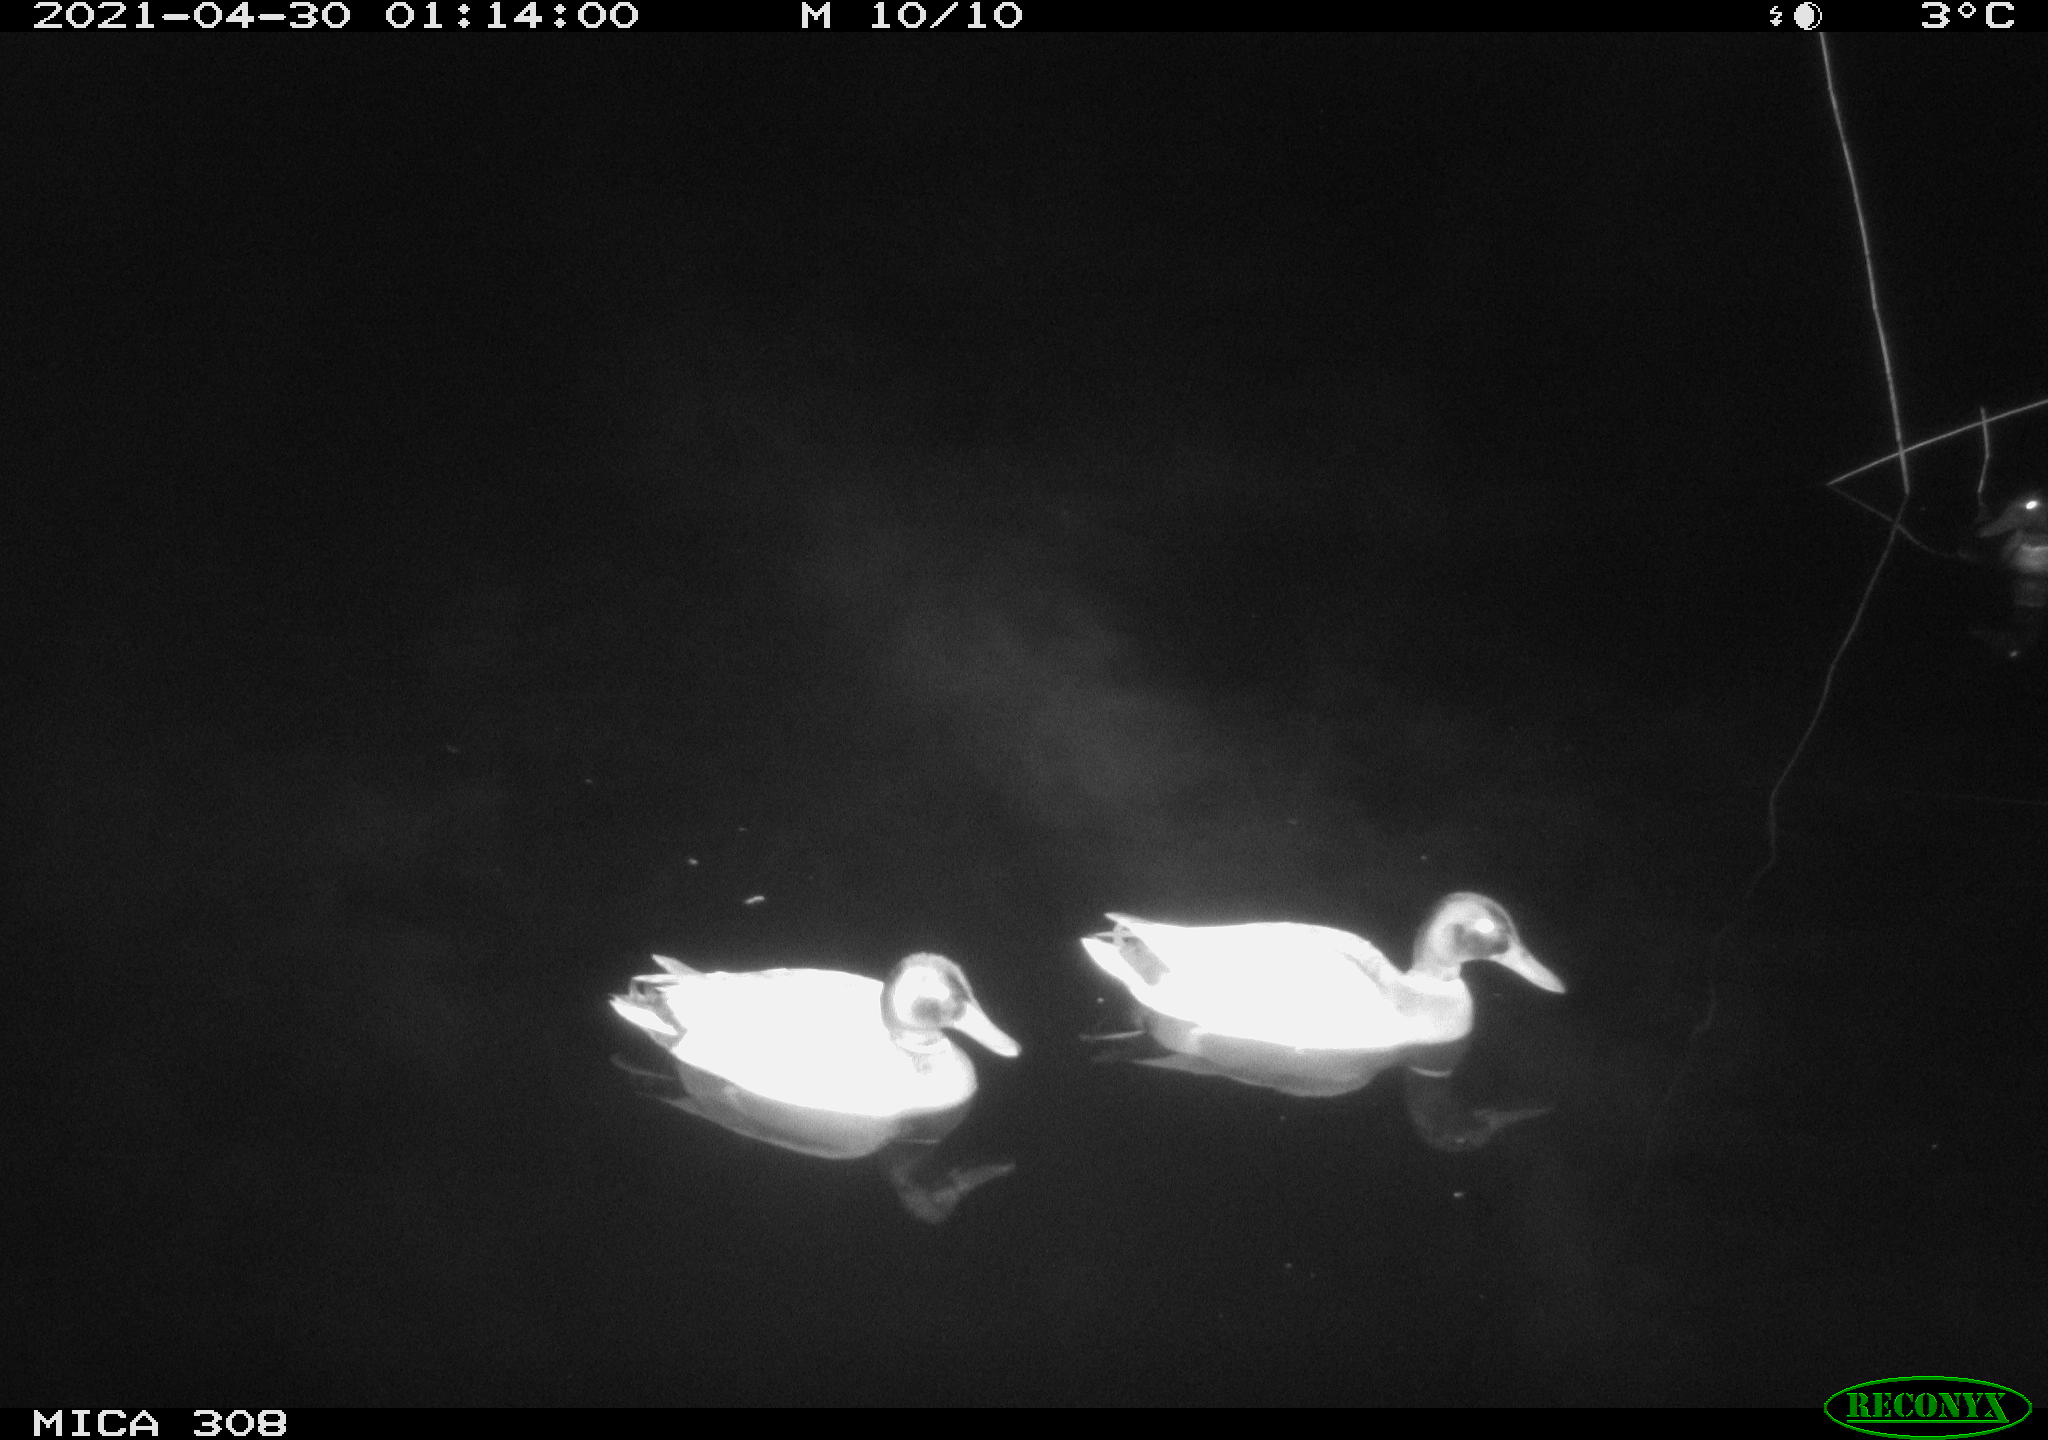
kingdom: Animalia
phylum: Chordata
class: Aves
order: Anseriformes
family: Anatidae
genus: Anas
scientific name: Anas platyrhynchos
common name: Mallard
